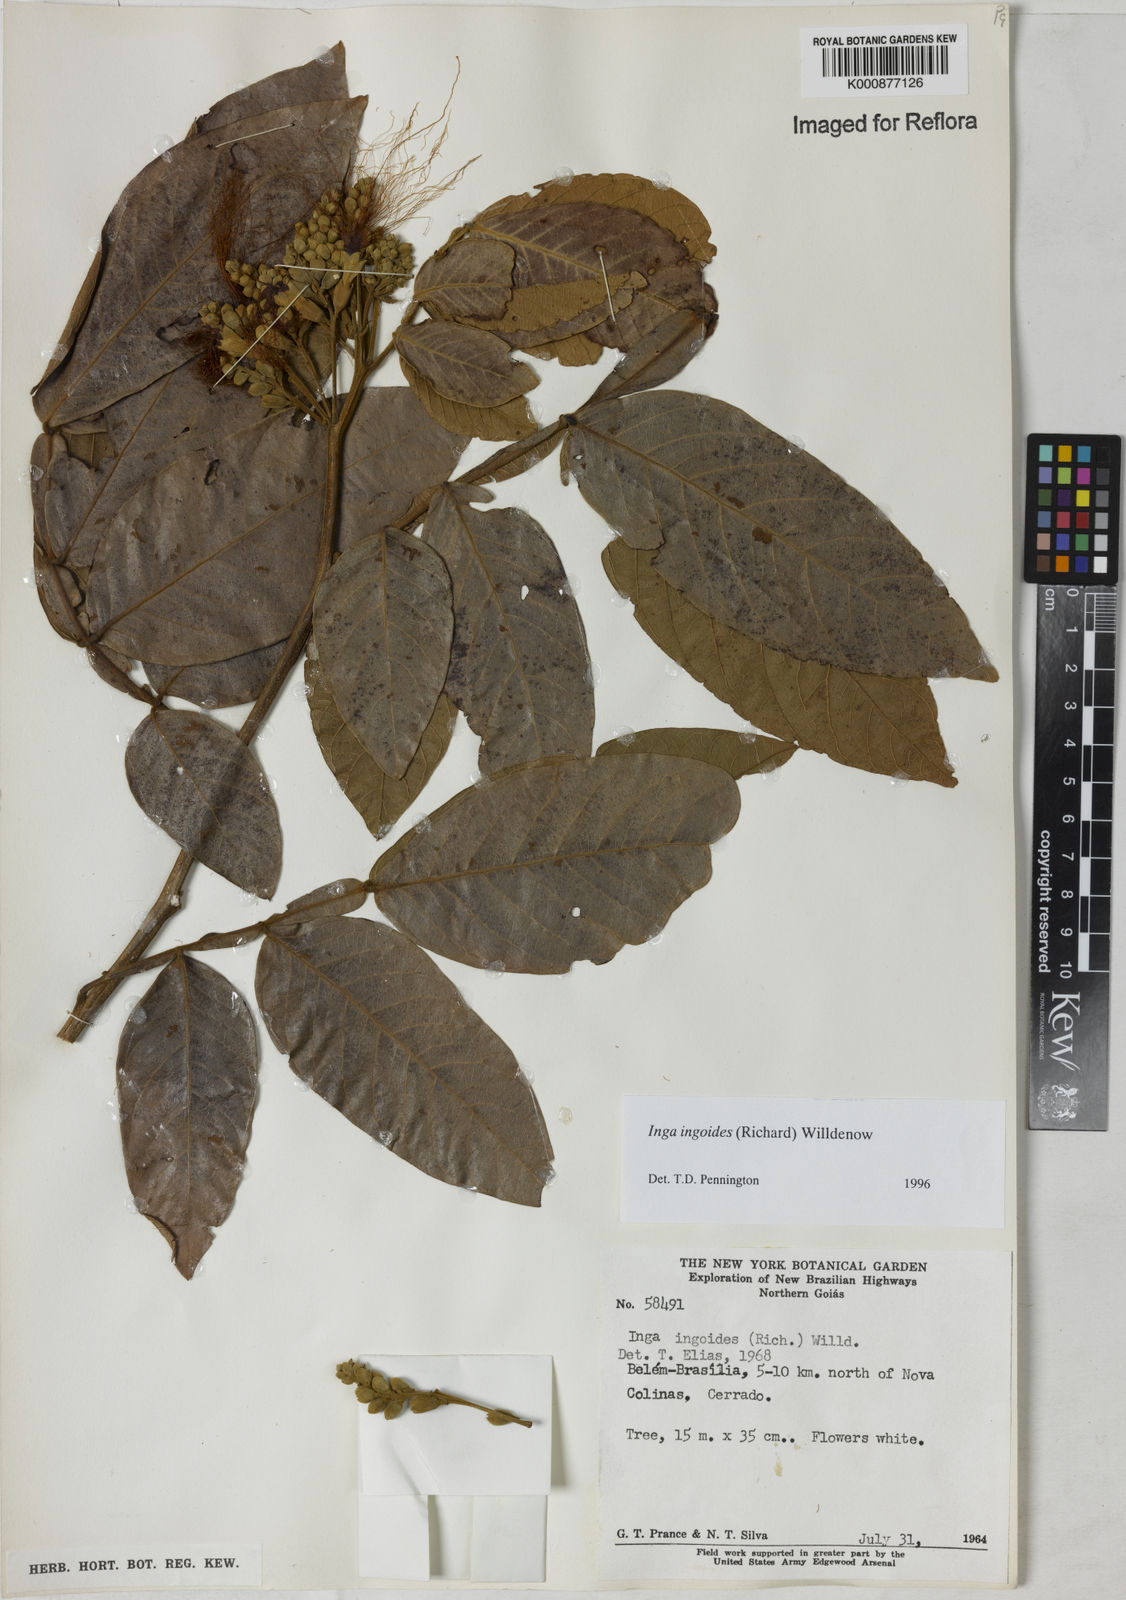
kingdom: Plantae
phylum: Tracheophyta
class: Magnoliopsida
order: Fabales
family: Fabaceae
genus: Inga
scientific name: Inga ingoides
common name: Spanish ash
